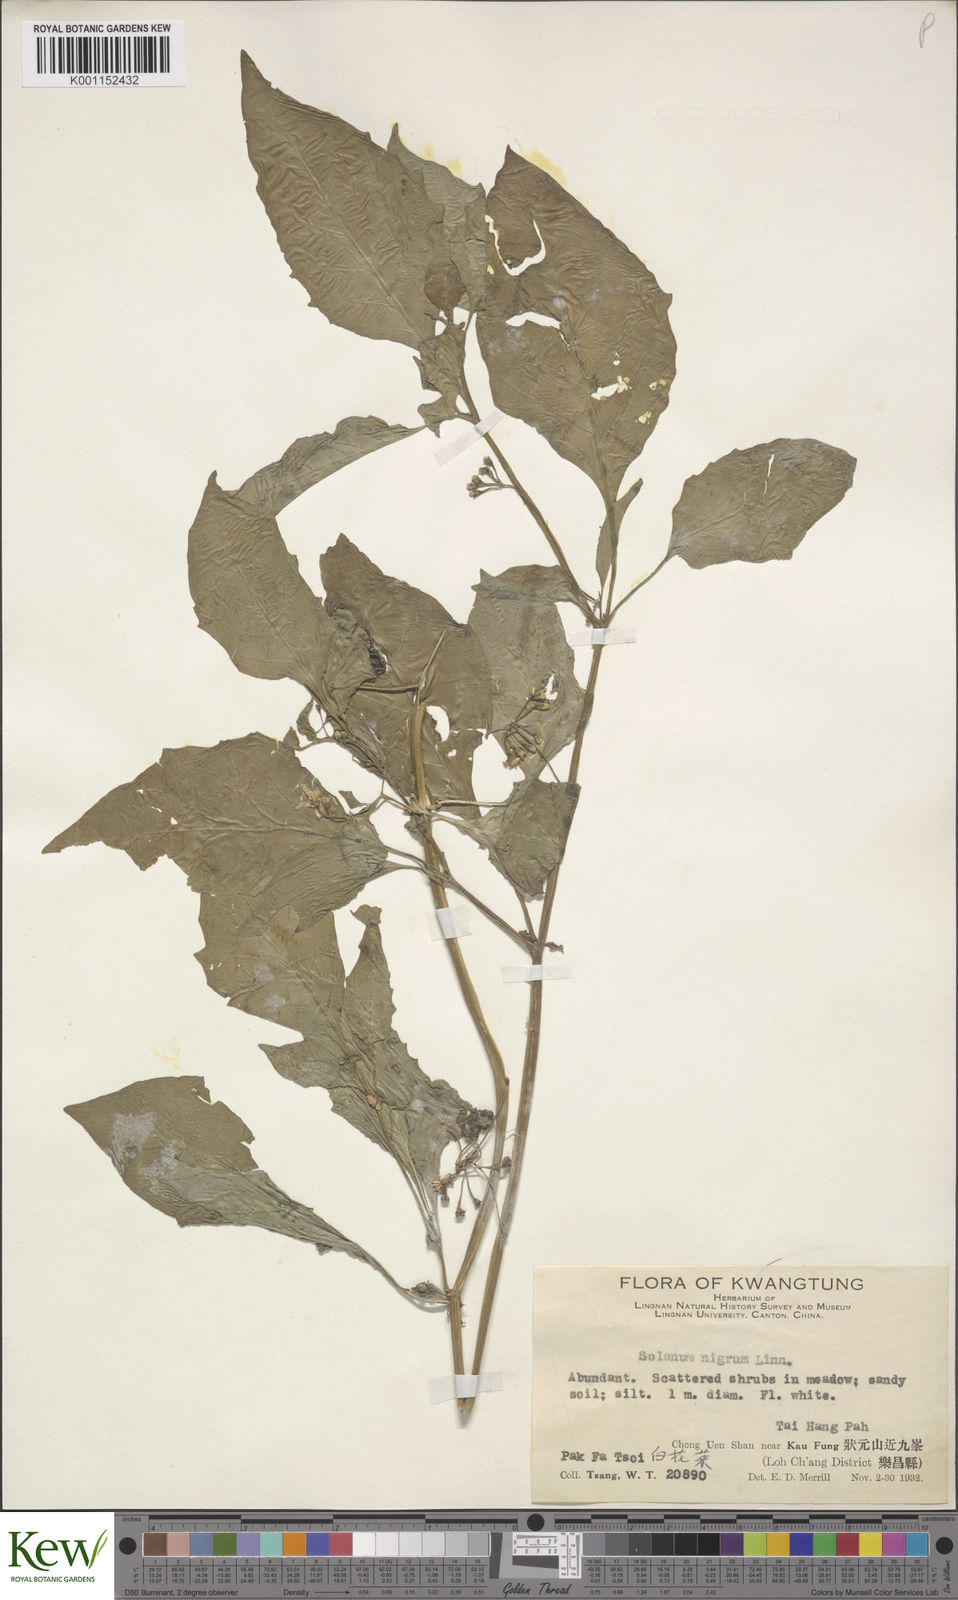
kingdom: Plantae
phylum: Tracheophyta
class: Magnoliopsida
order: Solanales
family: Solanaceae
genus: Solanum
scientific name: Solanum scabrum
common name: Garden-huckleberry
